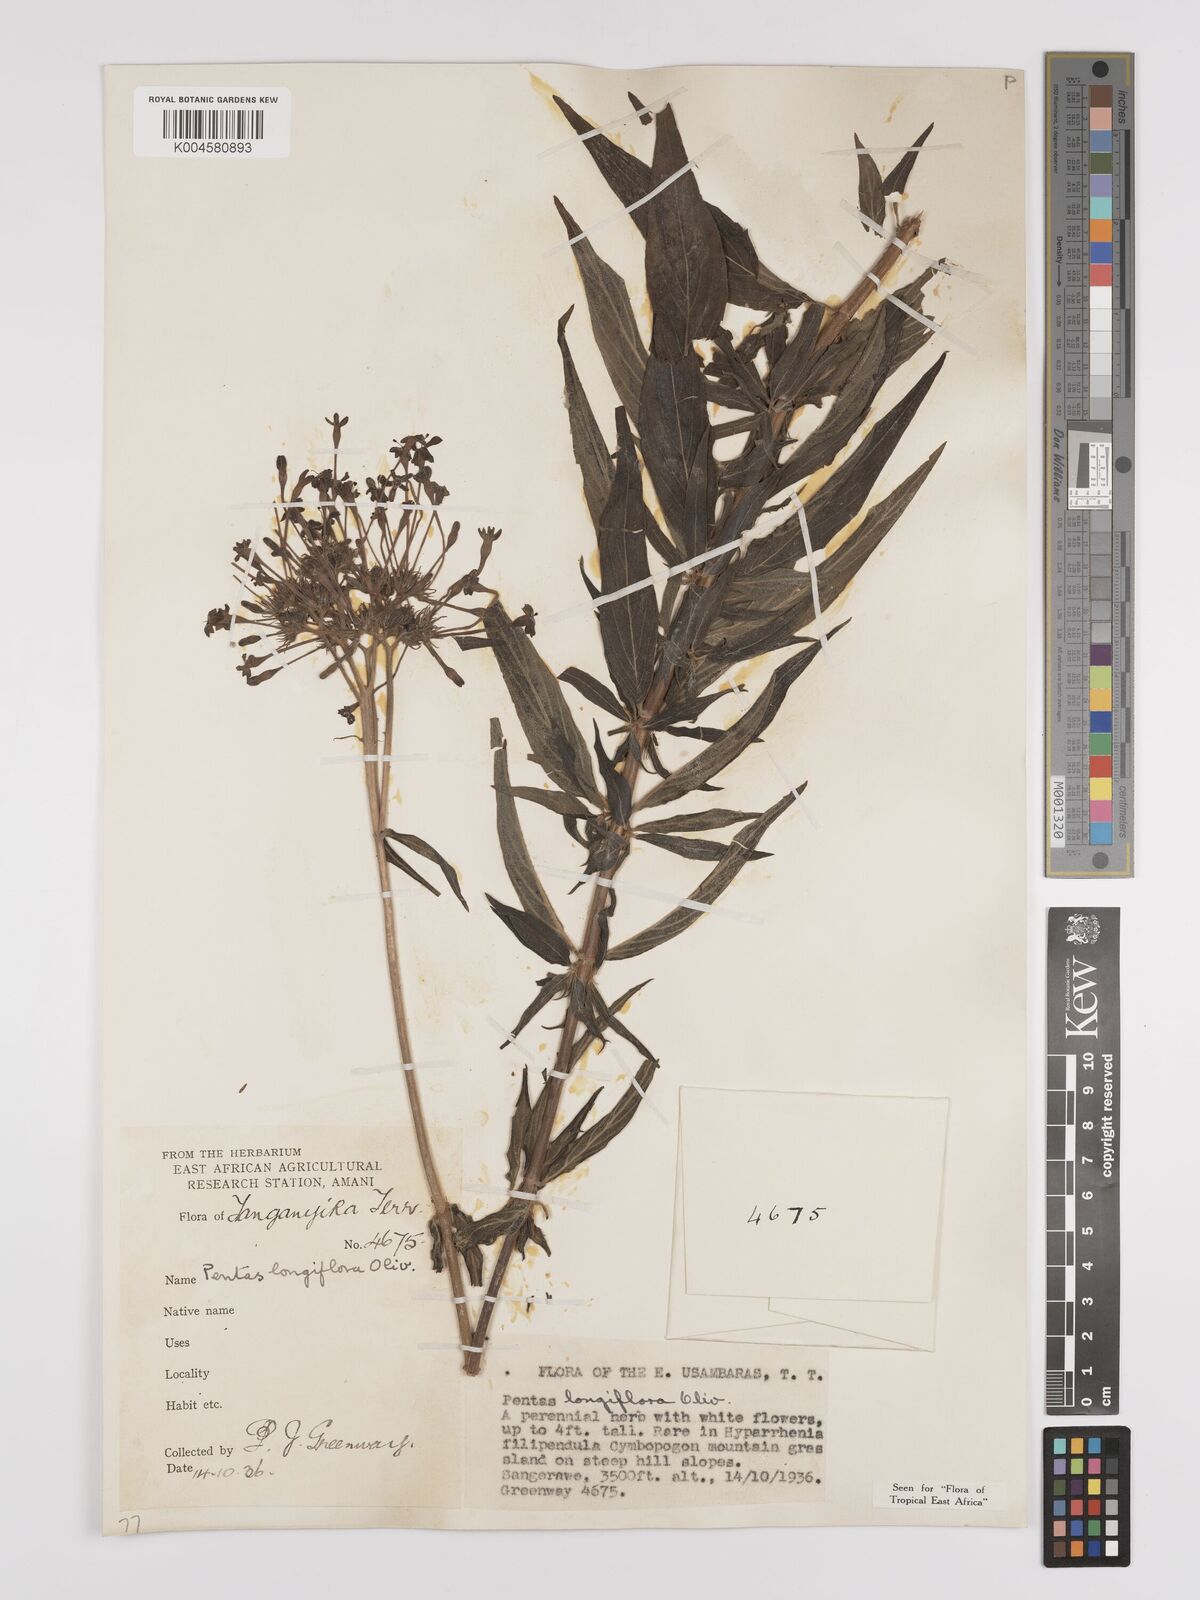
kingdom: Plantae
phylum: Tracheophyta
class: Magnoliopsida
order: Gentianales
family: Rubiaceae
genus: Dolichopentas
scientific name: Dolichopentas longiflora
